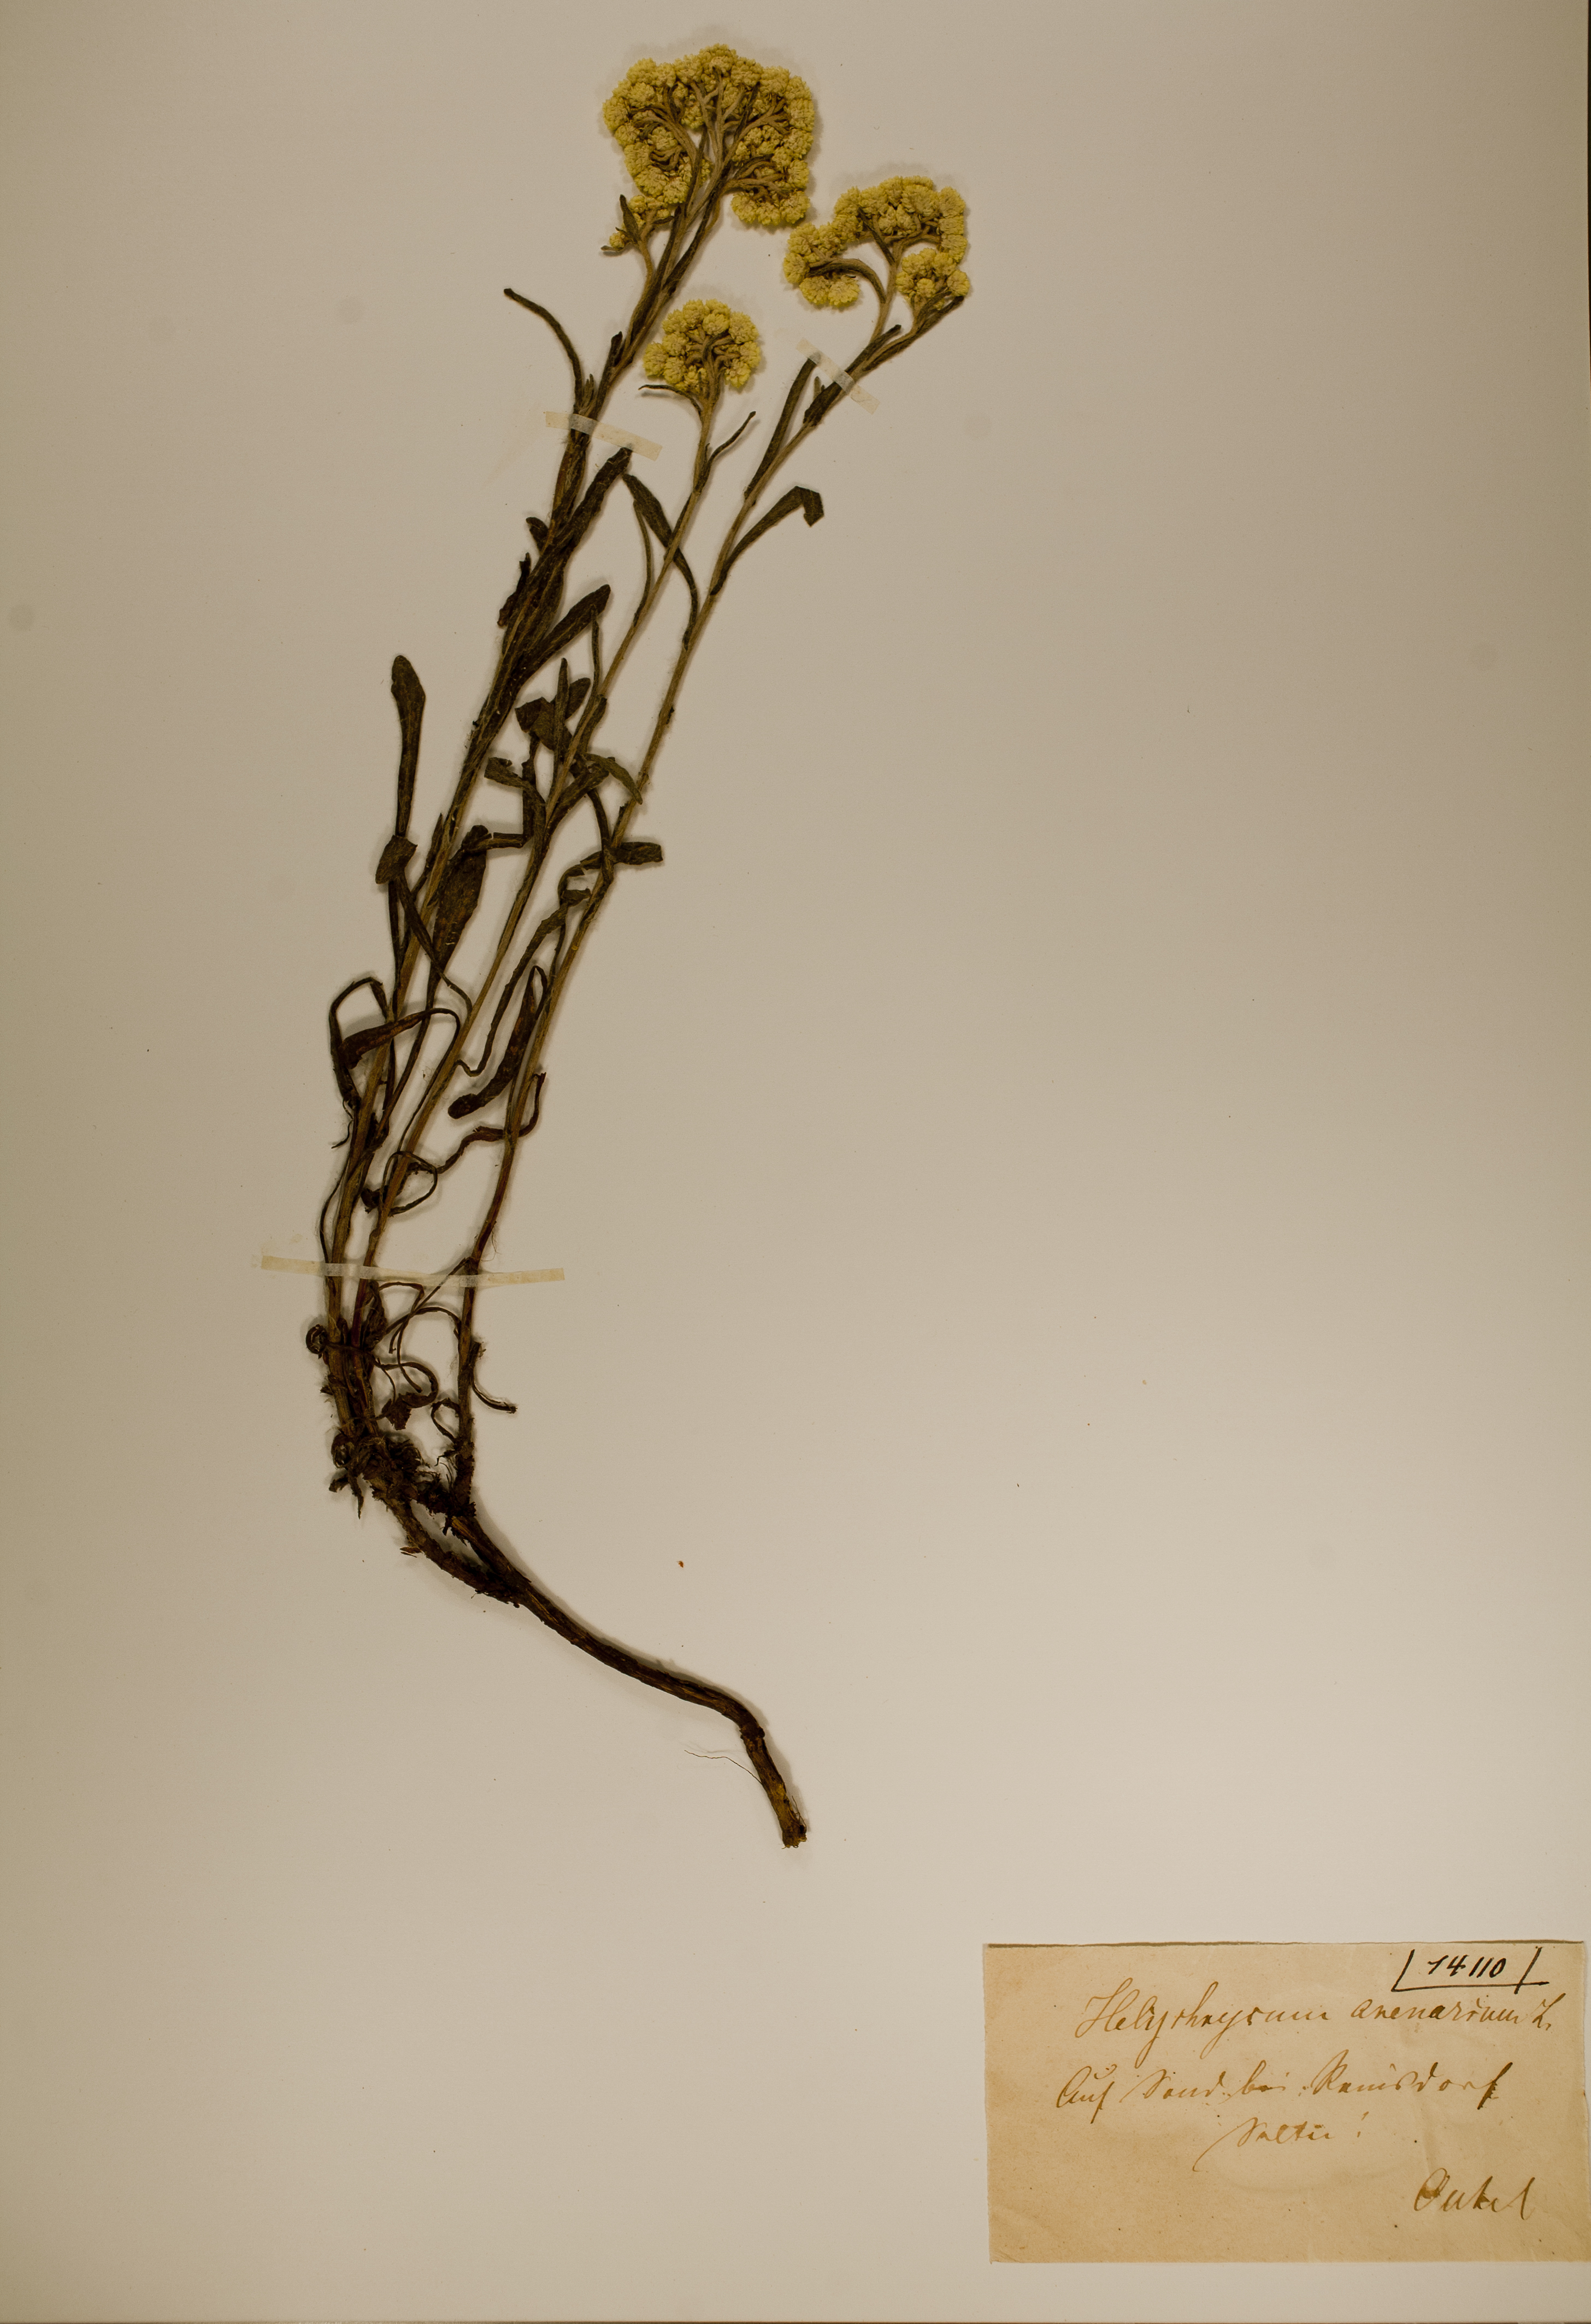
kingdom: Plantae
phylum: Tracheophyta
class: Magnoliopsida
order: Asterales
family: Asteraceae
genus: Helichrysum
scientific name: Helichrysum arenarium
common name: Strawflower
